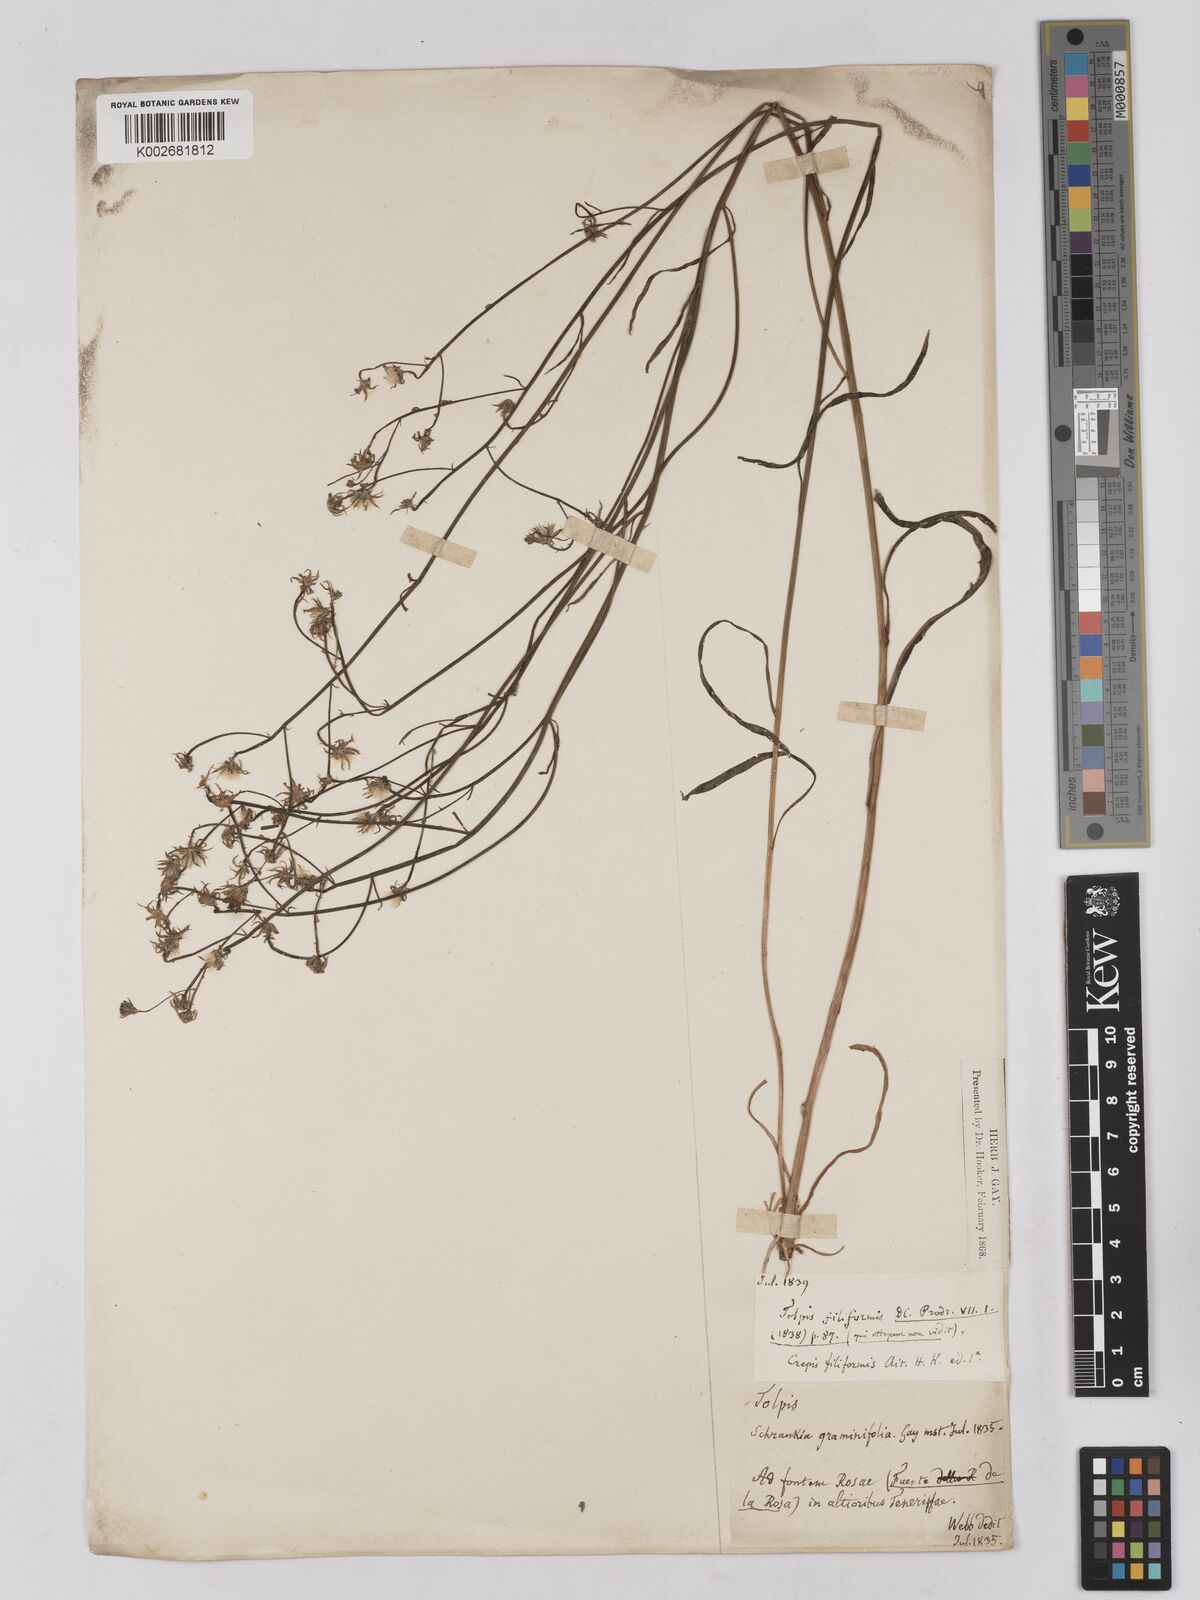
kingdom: Plantae
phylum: Tracheophyta
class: Magnoliopsida
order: Asterales
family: Asteraceae
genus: Tolpis
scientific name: Tolpis webbii
